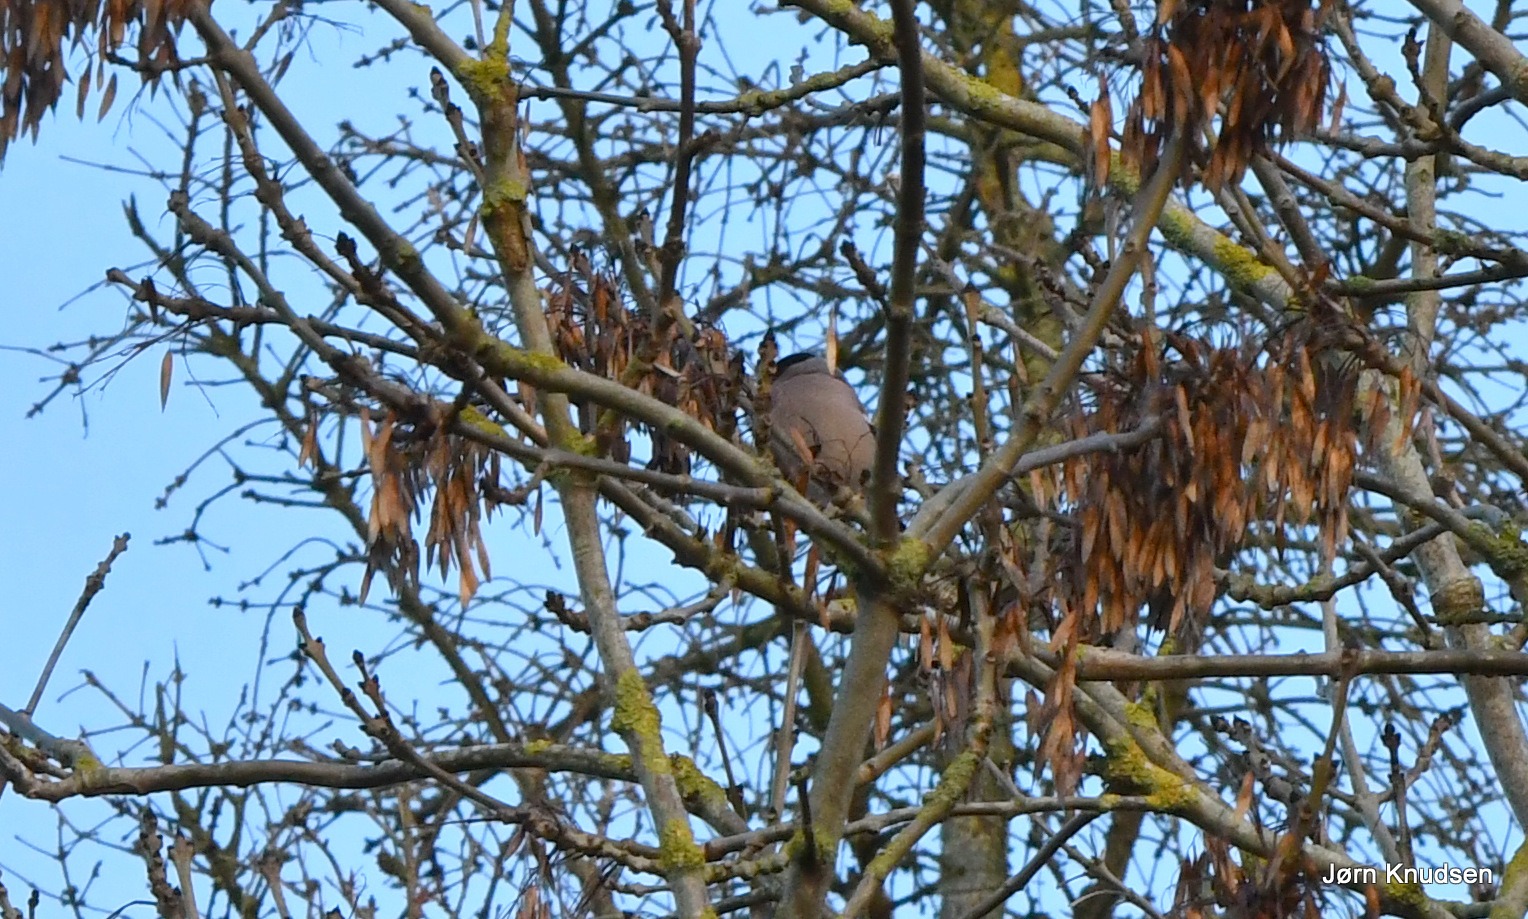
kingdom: Animalia
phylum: Chordata
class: Aves
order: Passeriformes
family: Fringillidae
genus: Pyrrhula
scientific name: Pyrrhula pyrrhula
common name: Dompap
